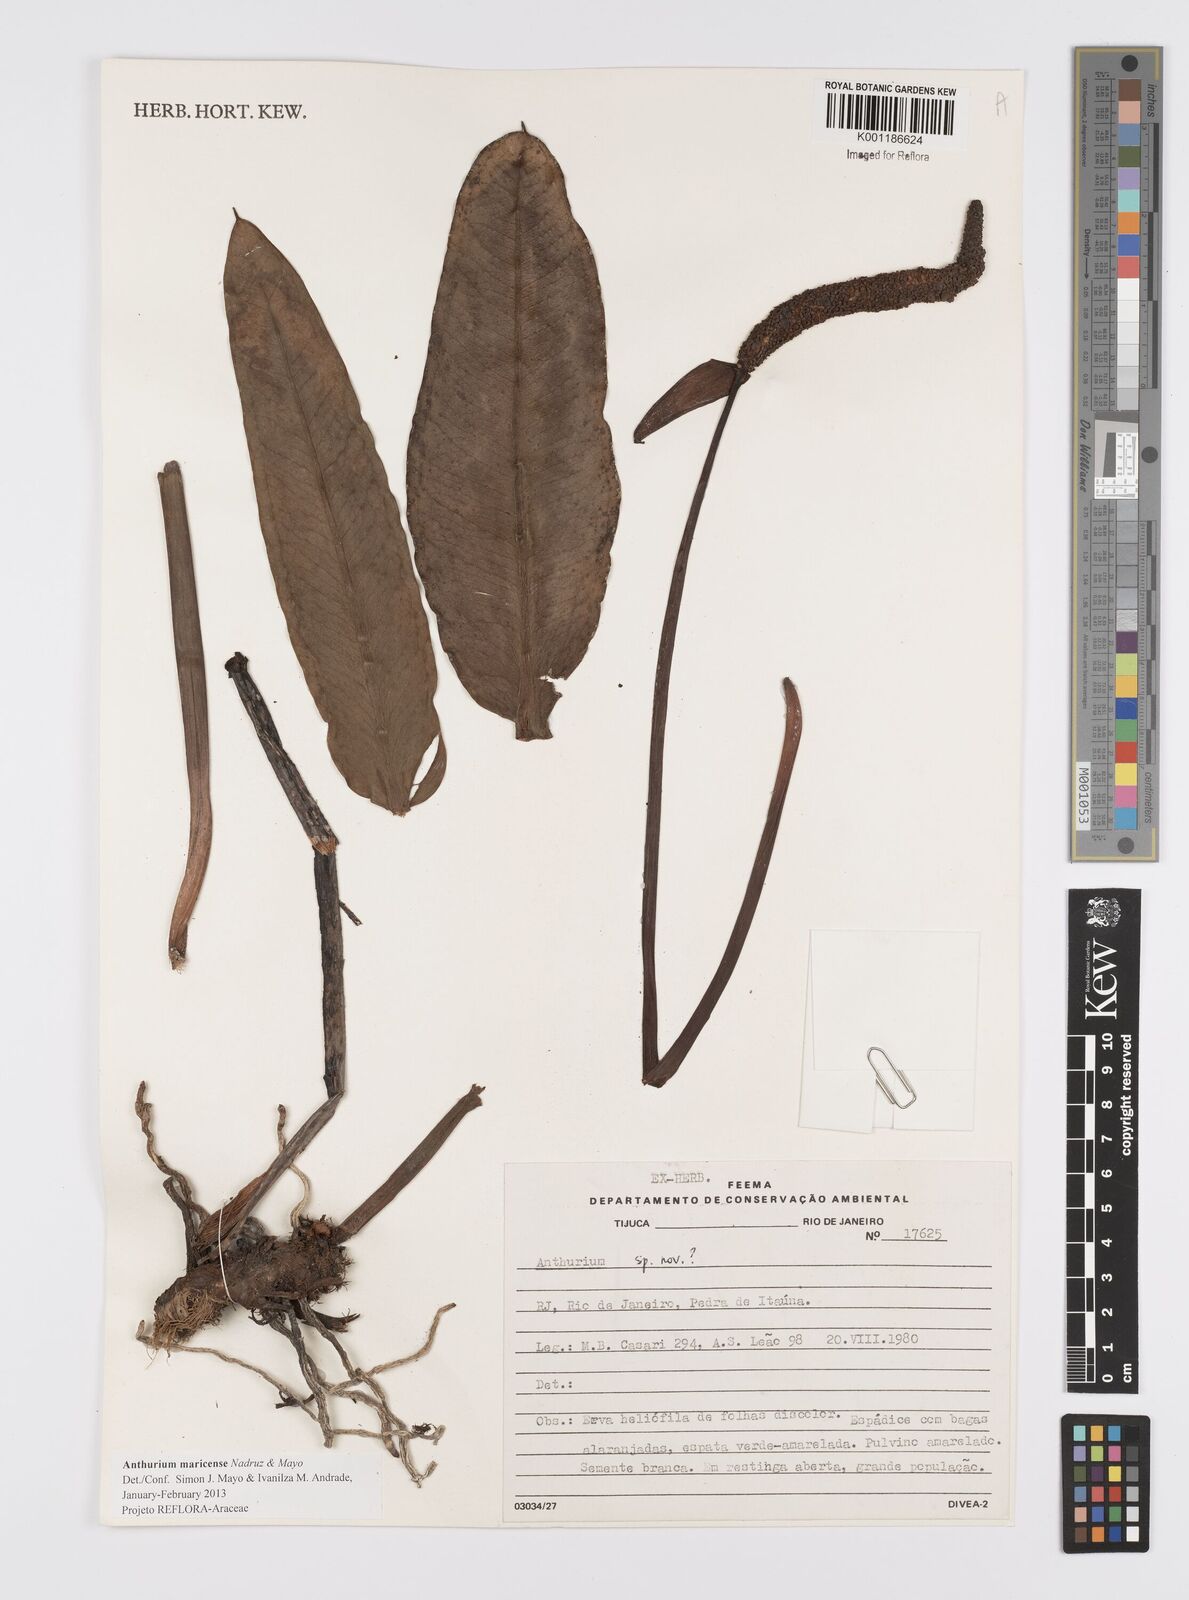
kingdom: Plantae
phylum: Tracheophyta
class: Liliopsida
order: Alismatales
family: Araceae
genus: Anthurium
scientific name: Anthurium maricense
